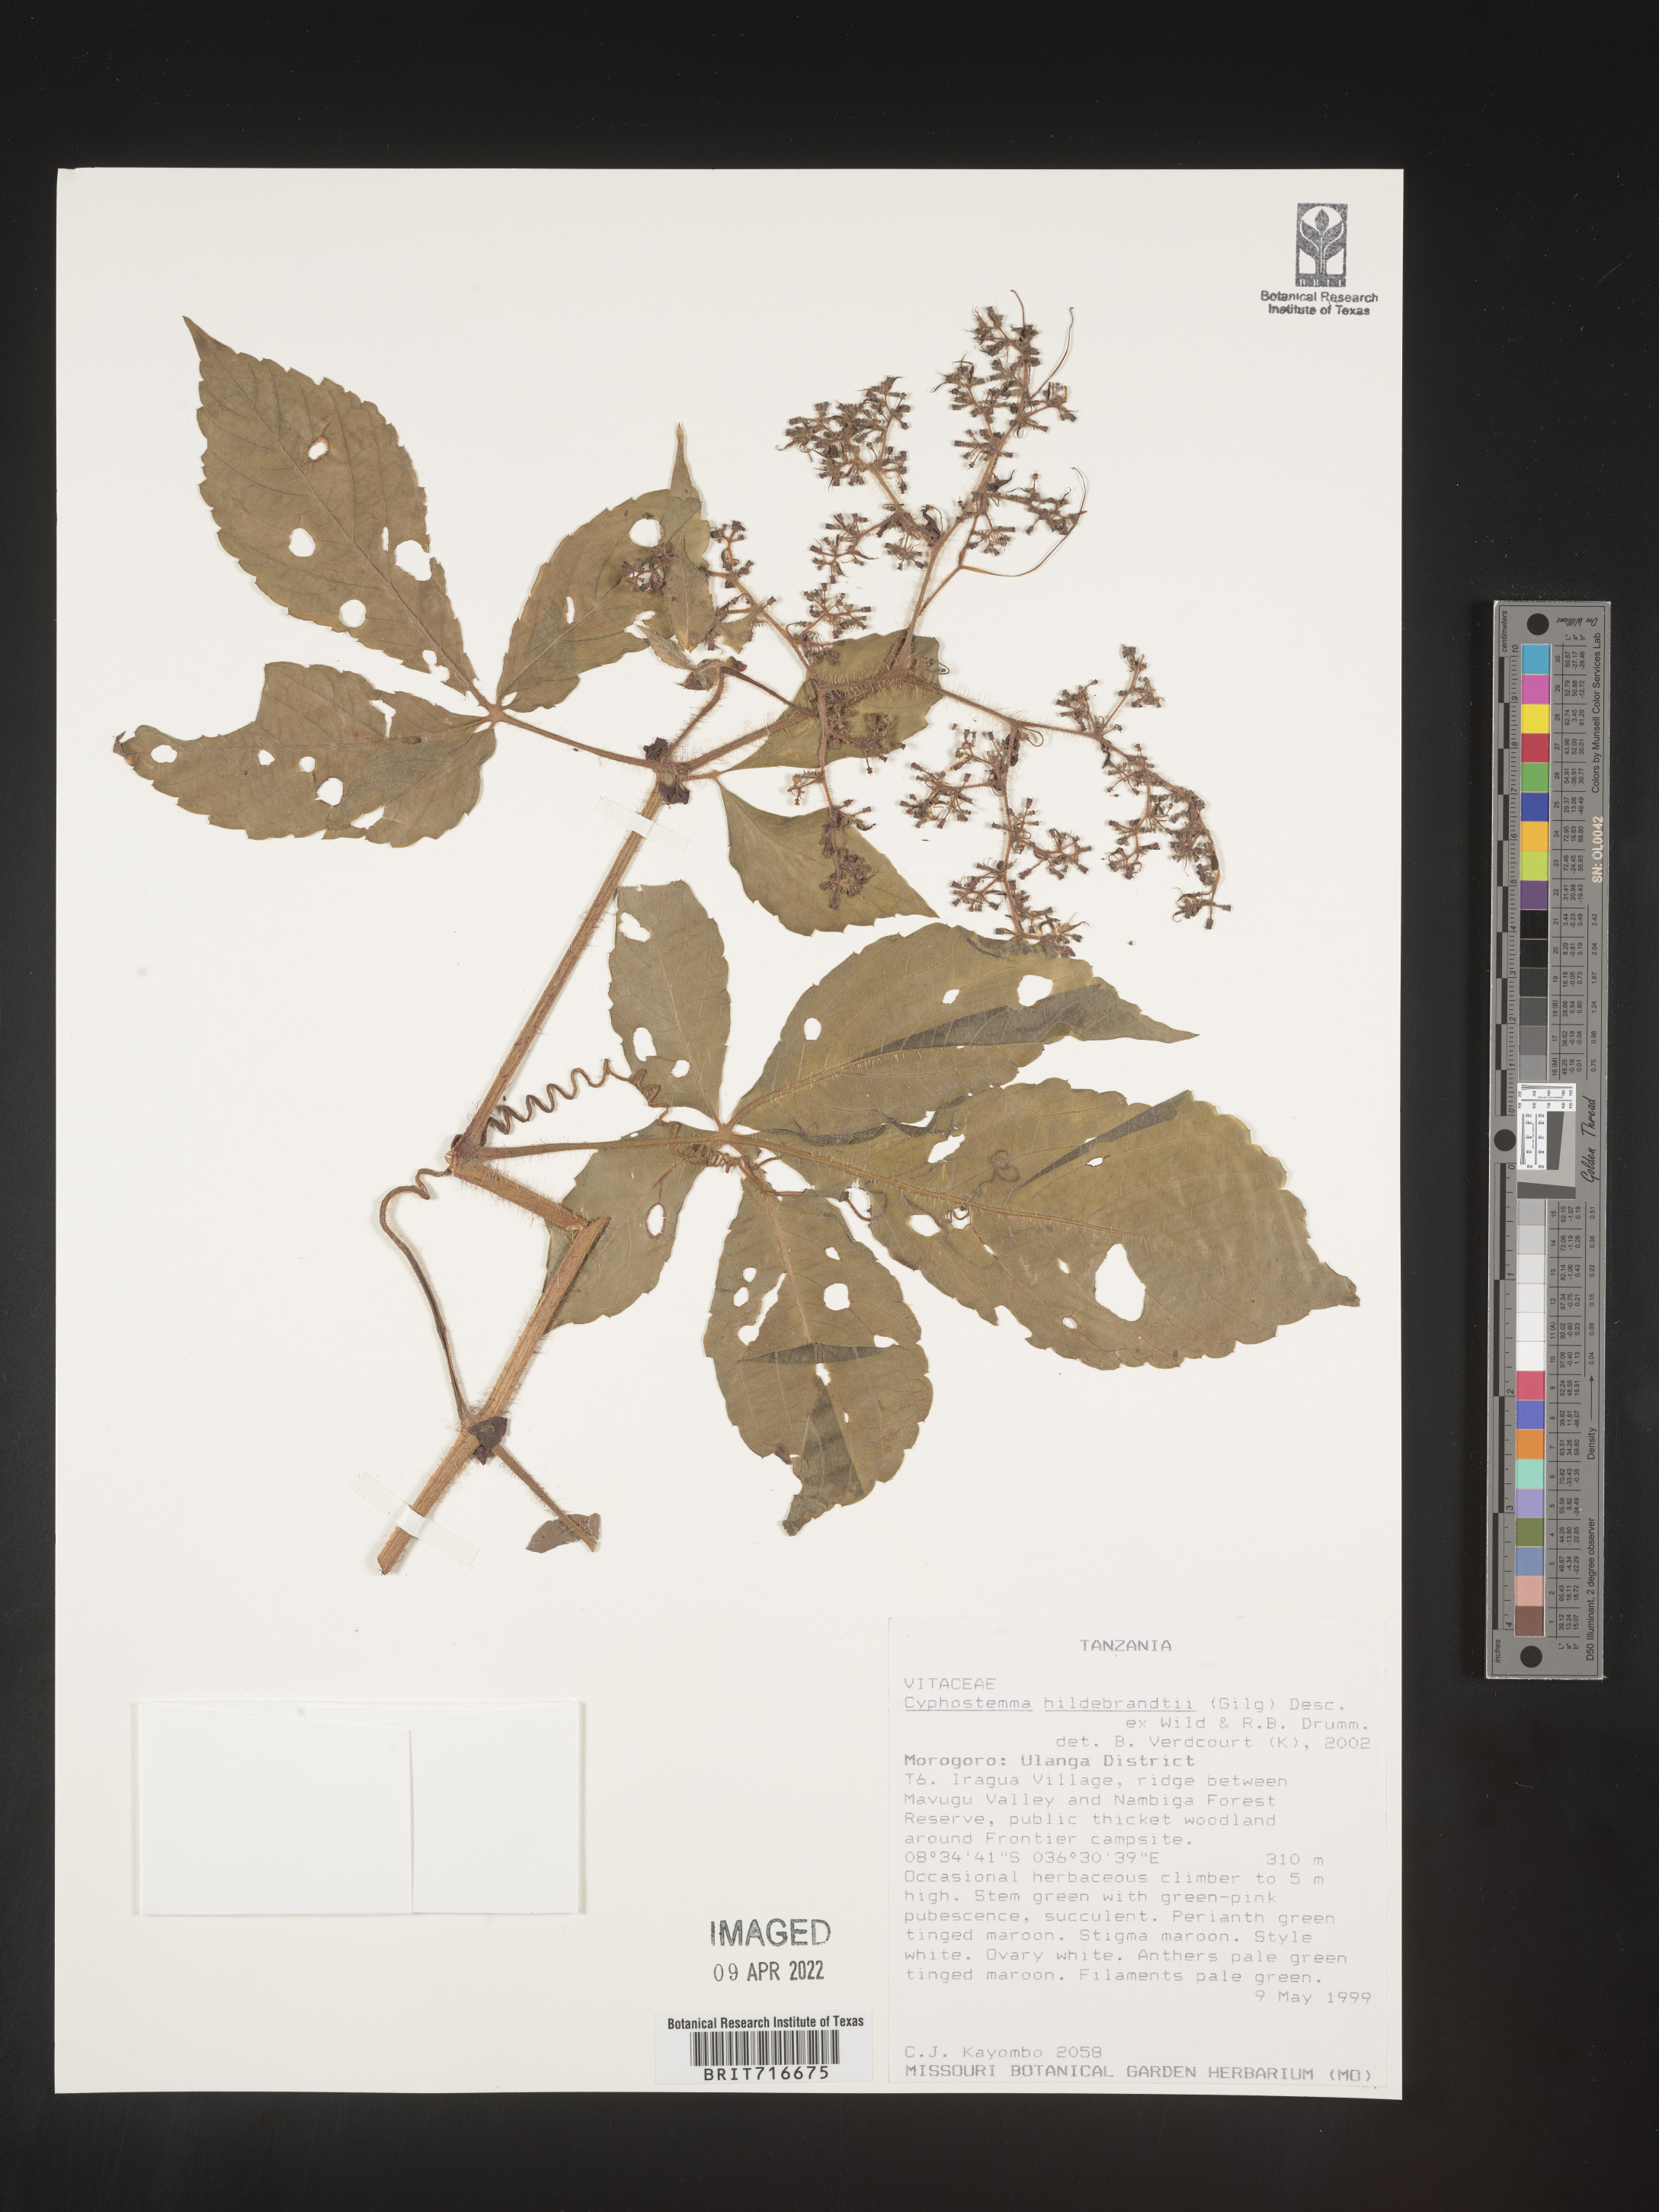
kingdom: Plantae
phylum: Tracheophyta
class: Magnoliopsida
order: Vitales
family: Vitaceae
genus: Cyphostemma
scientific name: Cyphostemma
